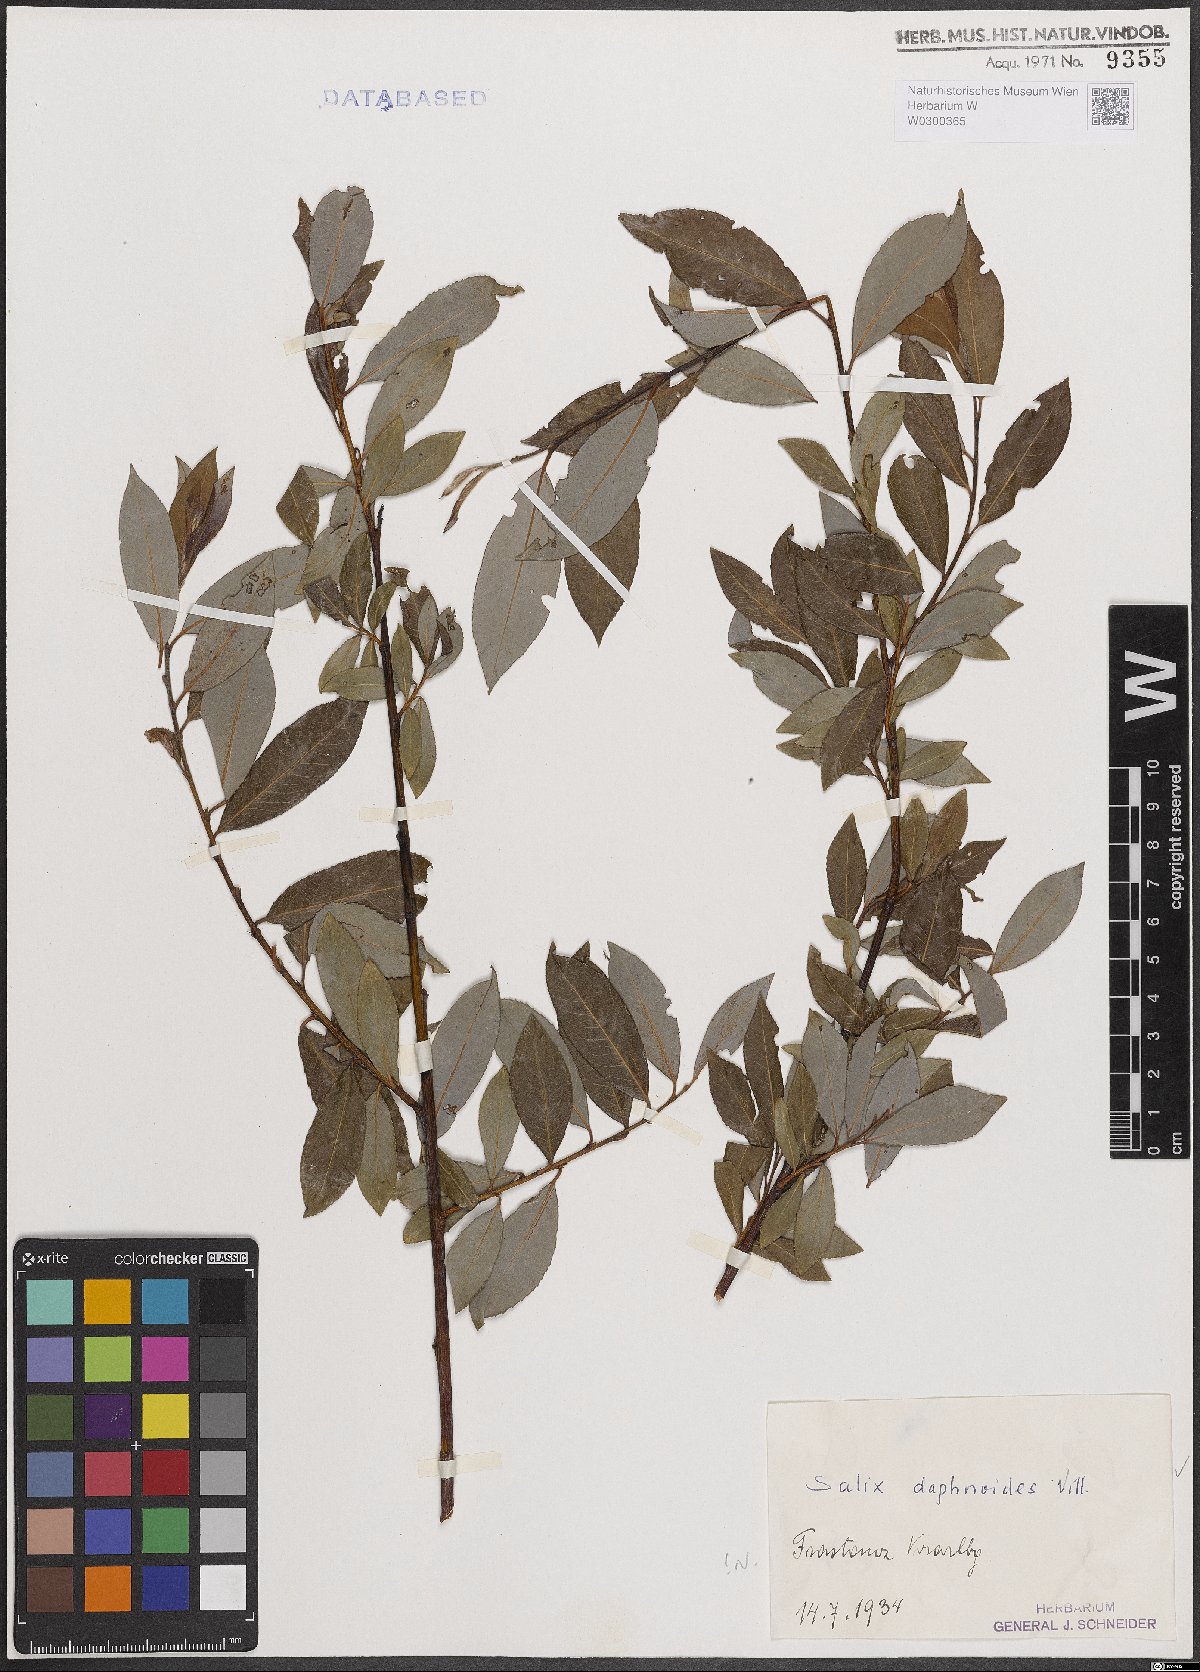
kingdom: Plantae
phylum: Tracheophyta
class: Magnoliopsida
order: Malpighiales
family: Salicaceae
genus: Salix
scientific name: Salix daphnoides
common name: European violet-willow
